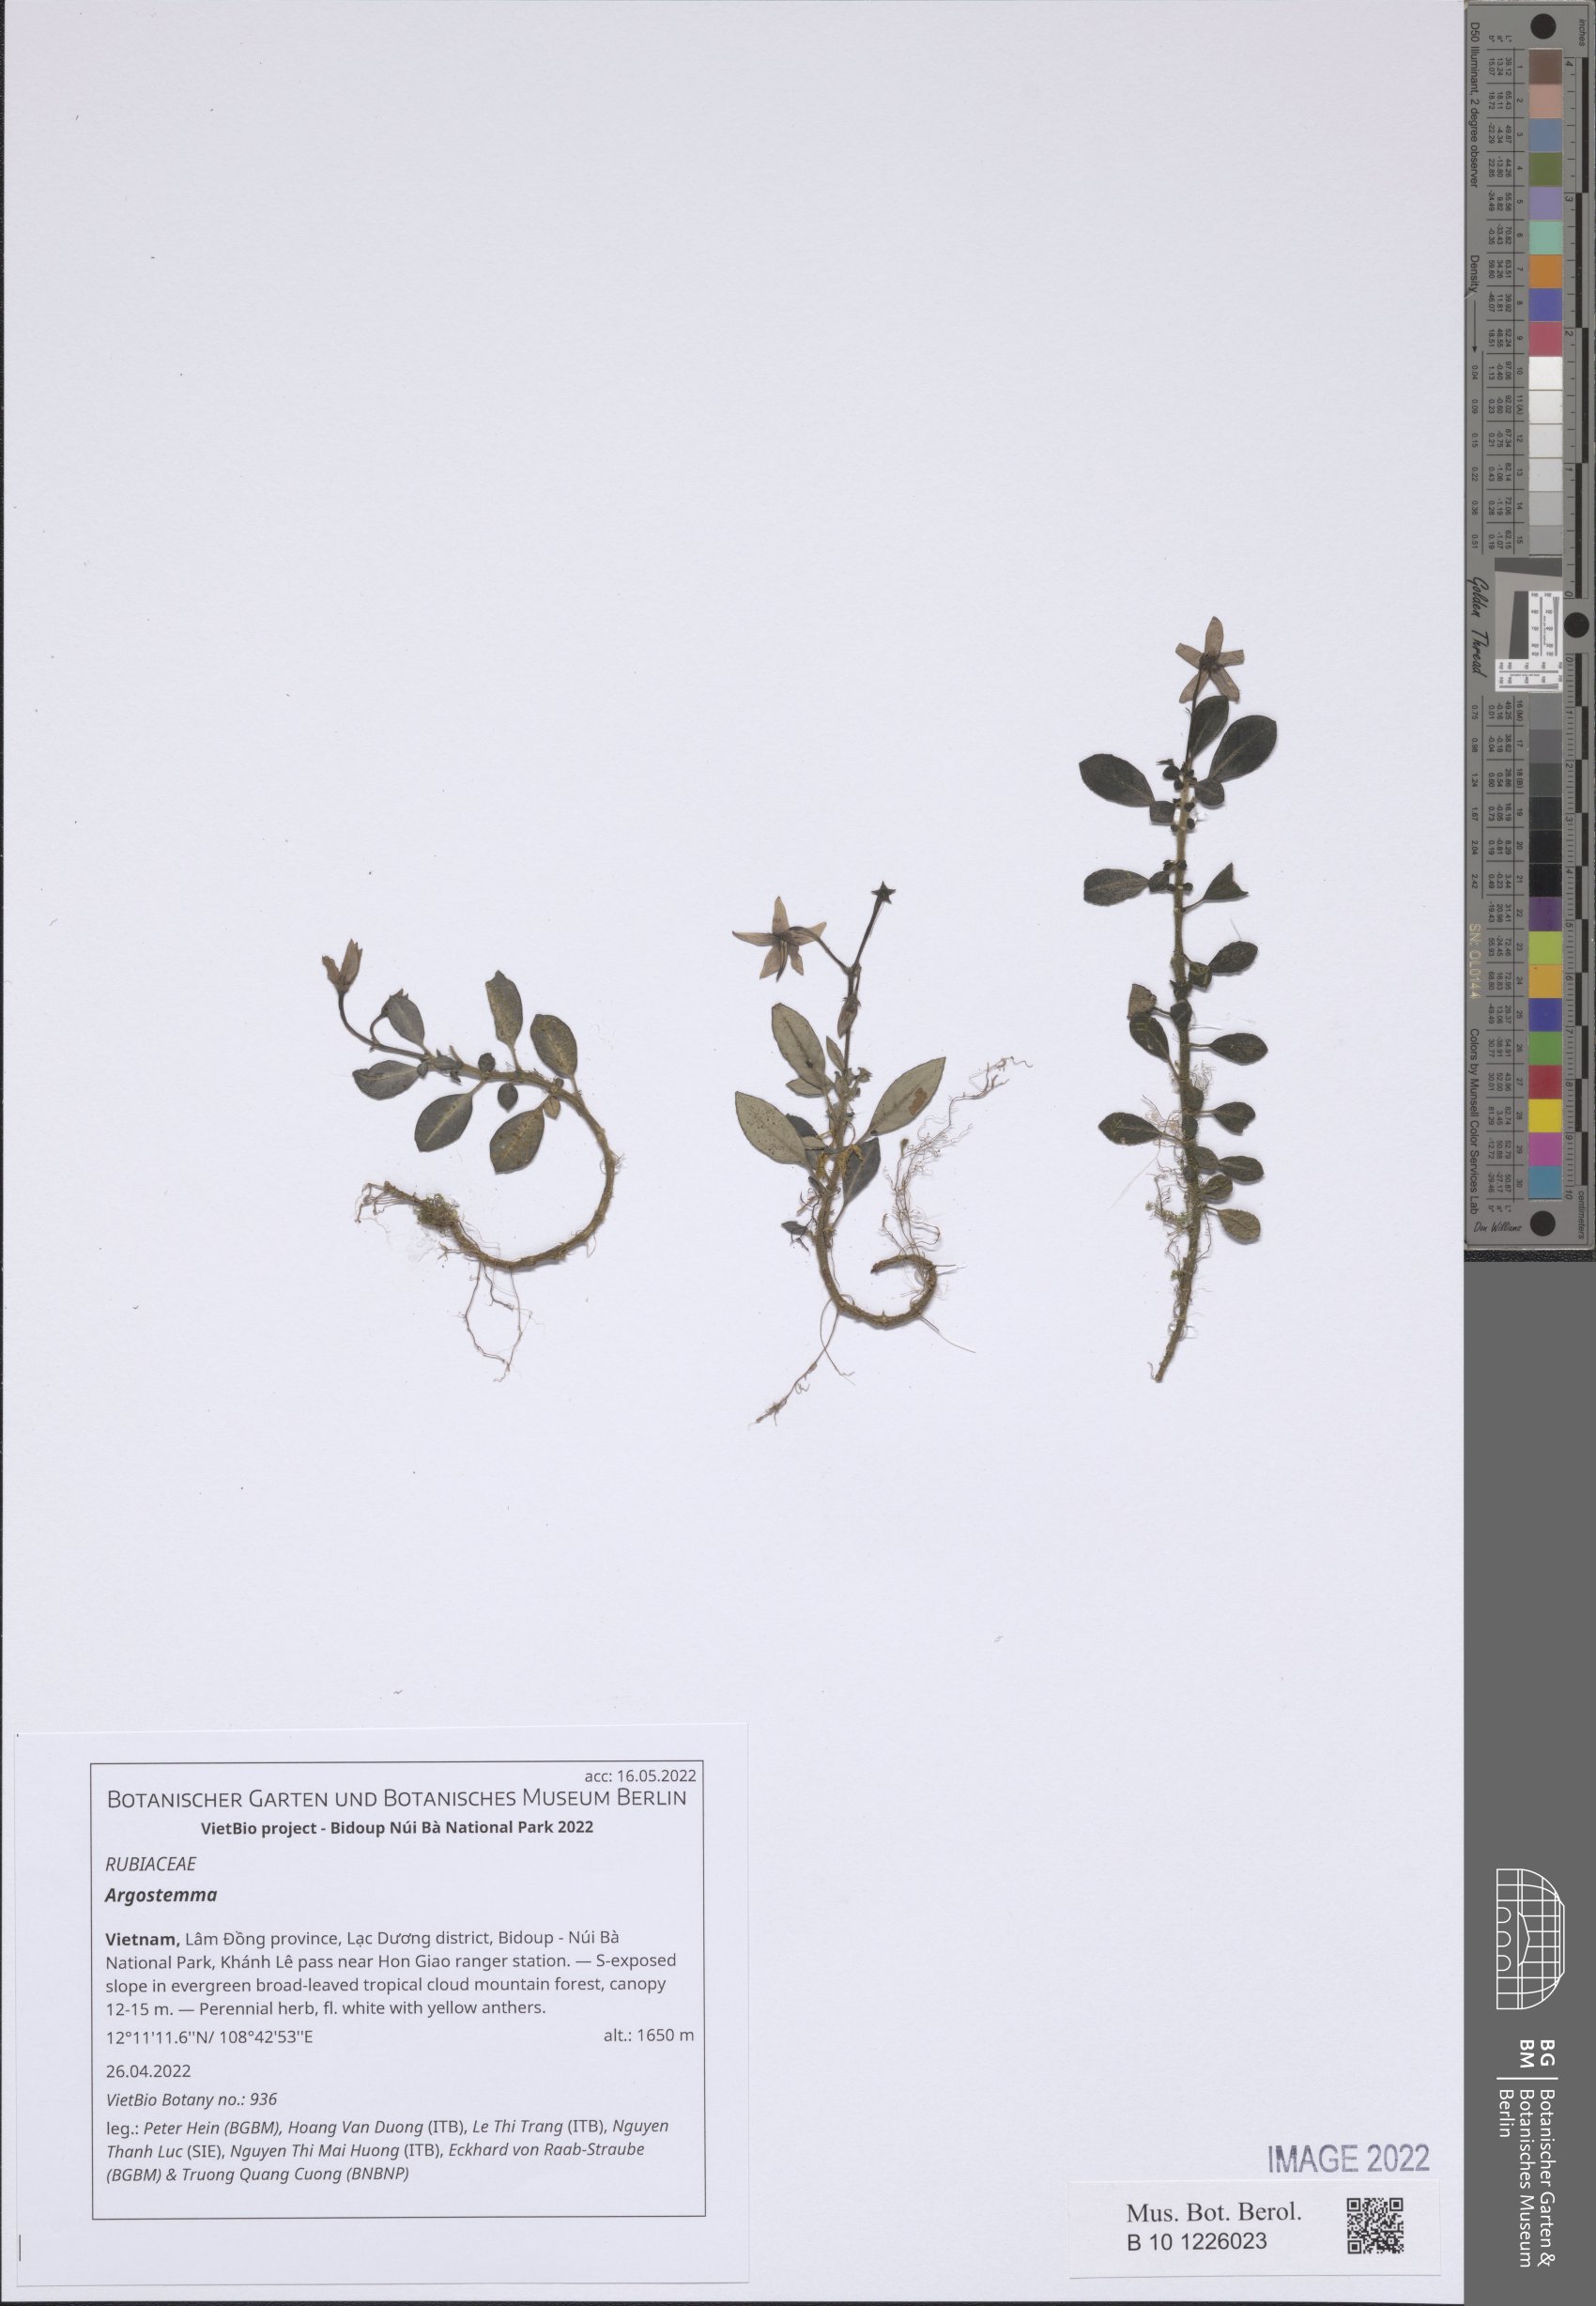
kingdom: Plantae
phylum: Tracheophyta
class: Magnoliopsida
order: Gentianales
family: Rubiaceae
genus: Argostemma
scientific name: Argostemma
